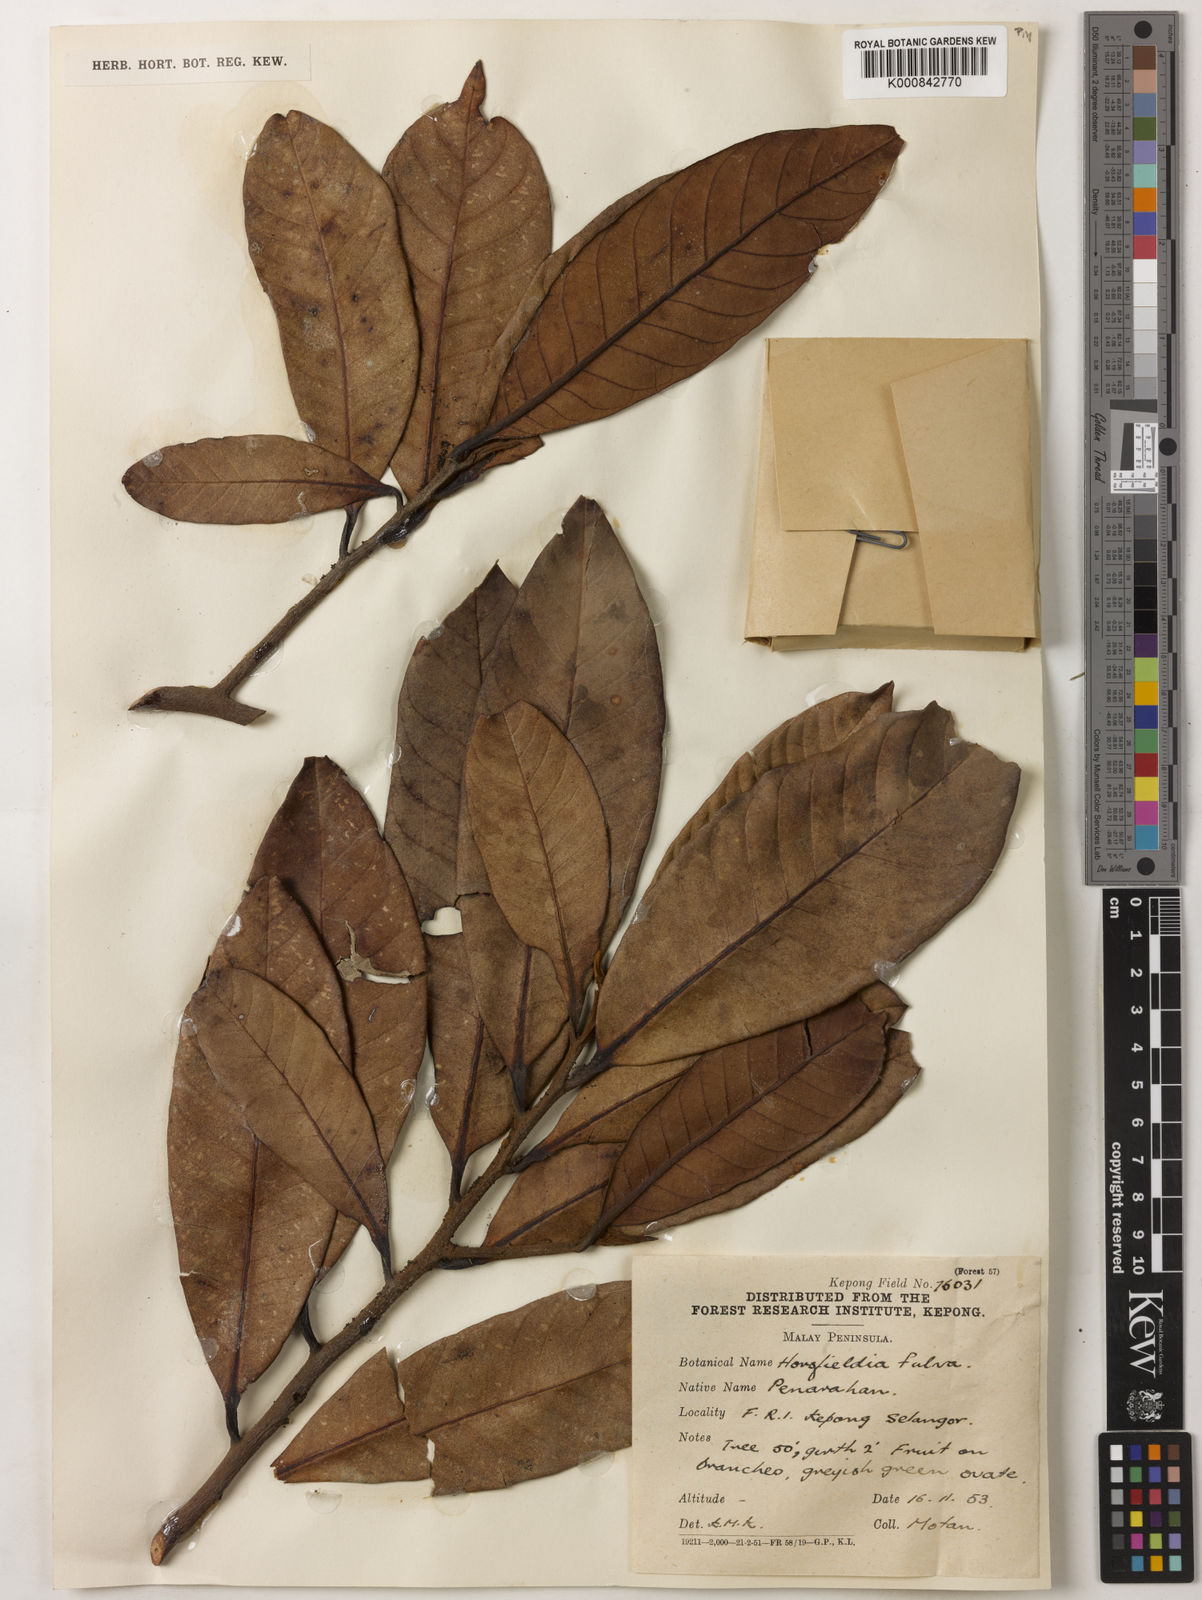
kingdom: Plantae
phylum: Tracheophyta
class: Magnoliopsida
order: Magnoliales
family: Myristicaceae
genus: Horsfieldia
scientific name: Horsfieldia fulva
